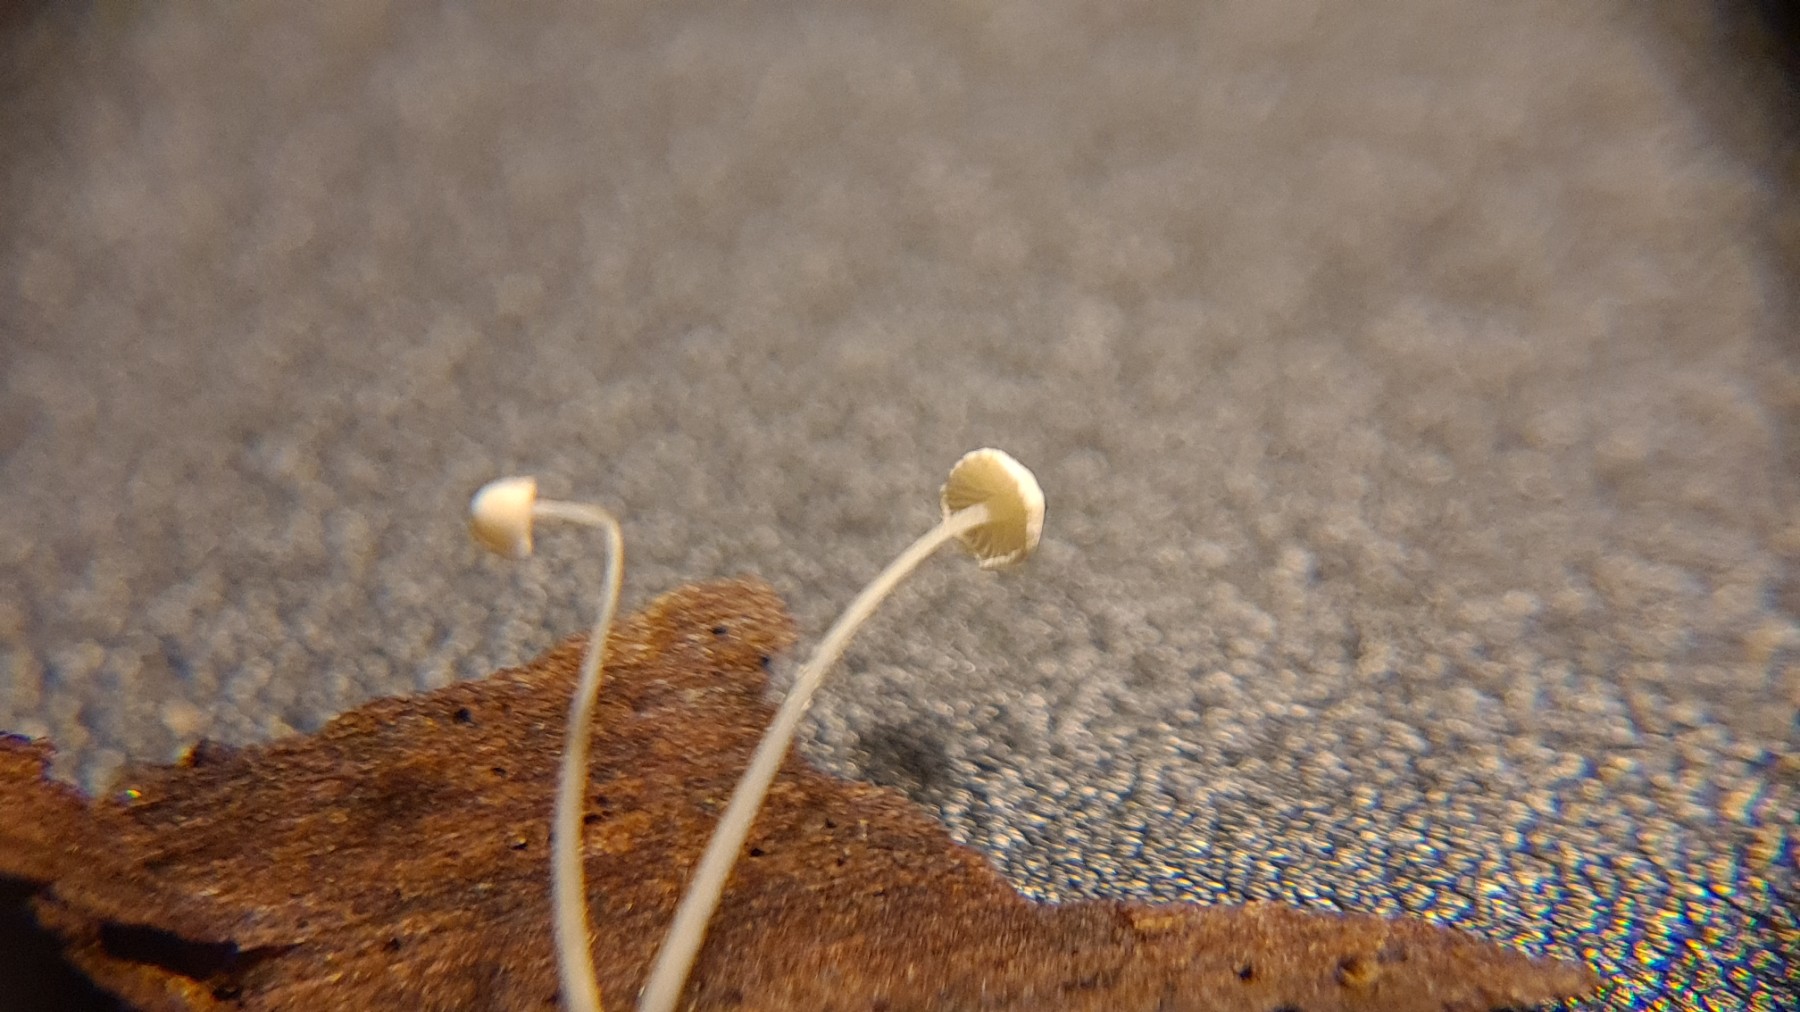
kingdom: Fungi
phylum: Basidiomycota
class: Agaricomycetes
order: Agaricales
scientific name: Agaricales
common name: champignonordenen
